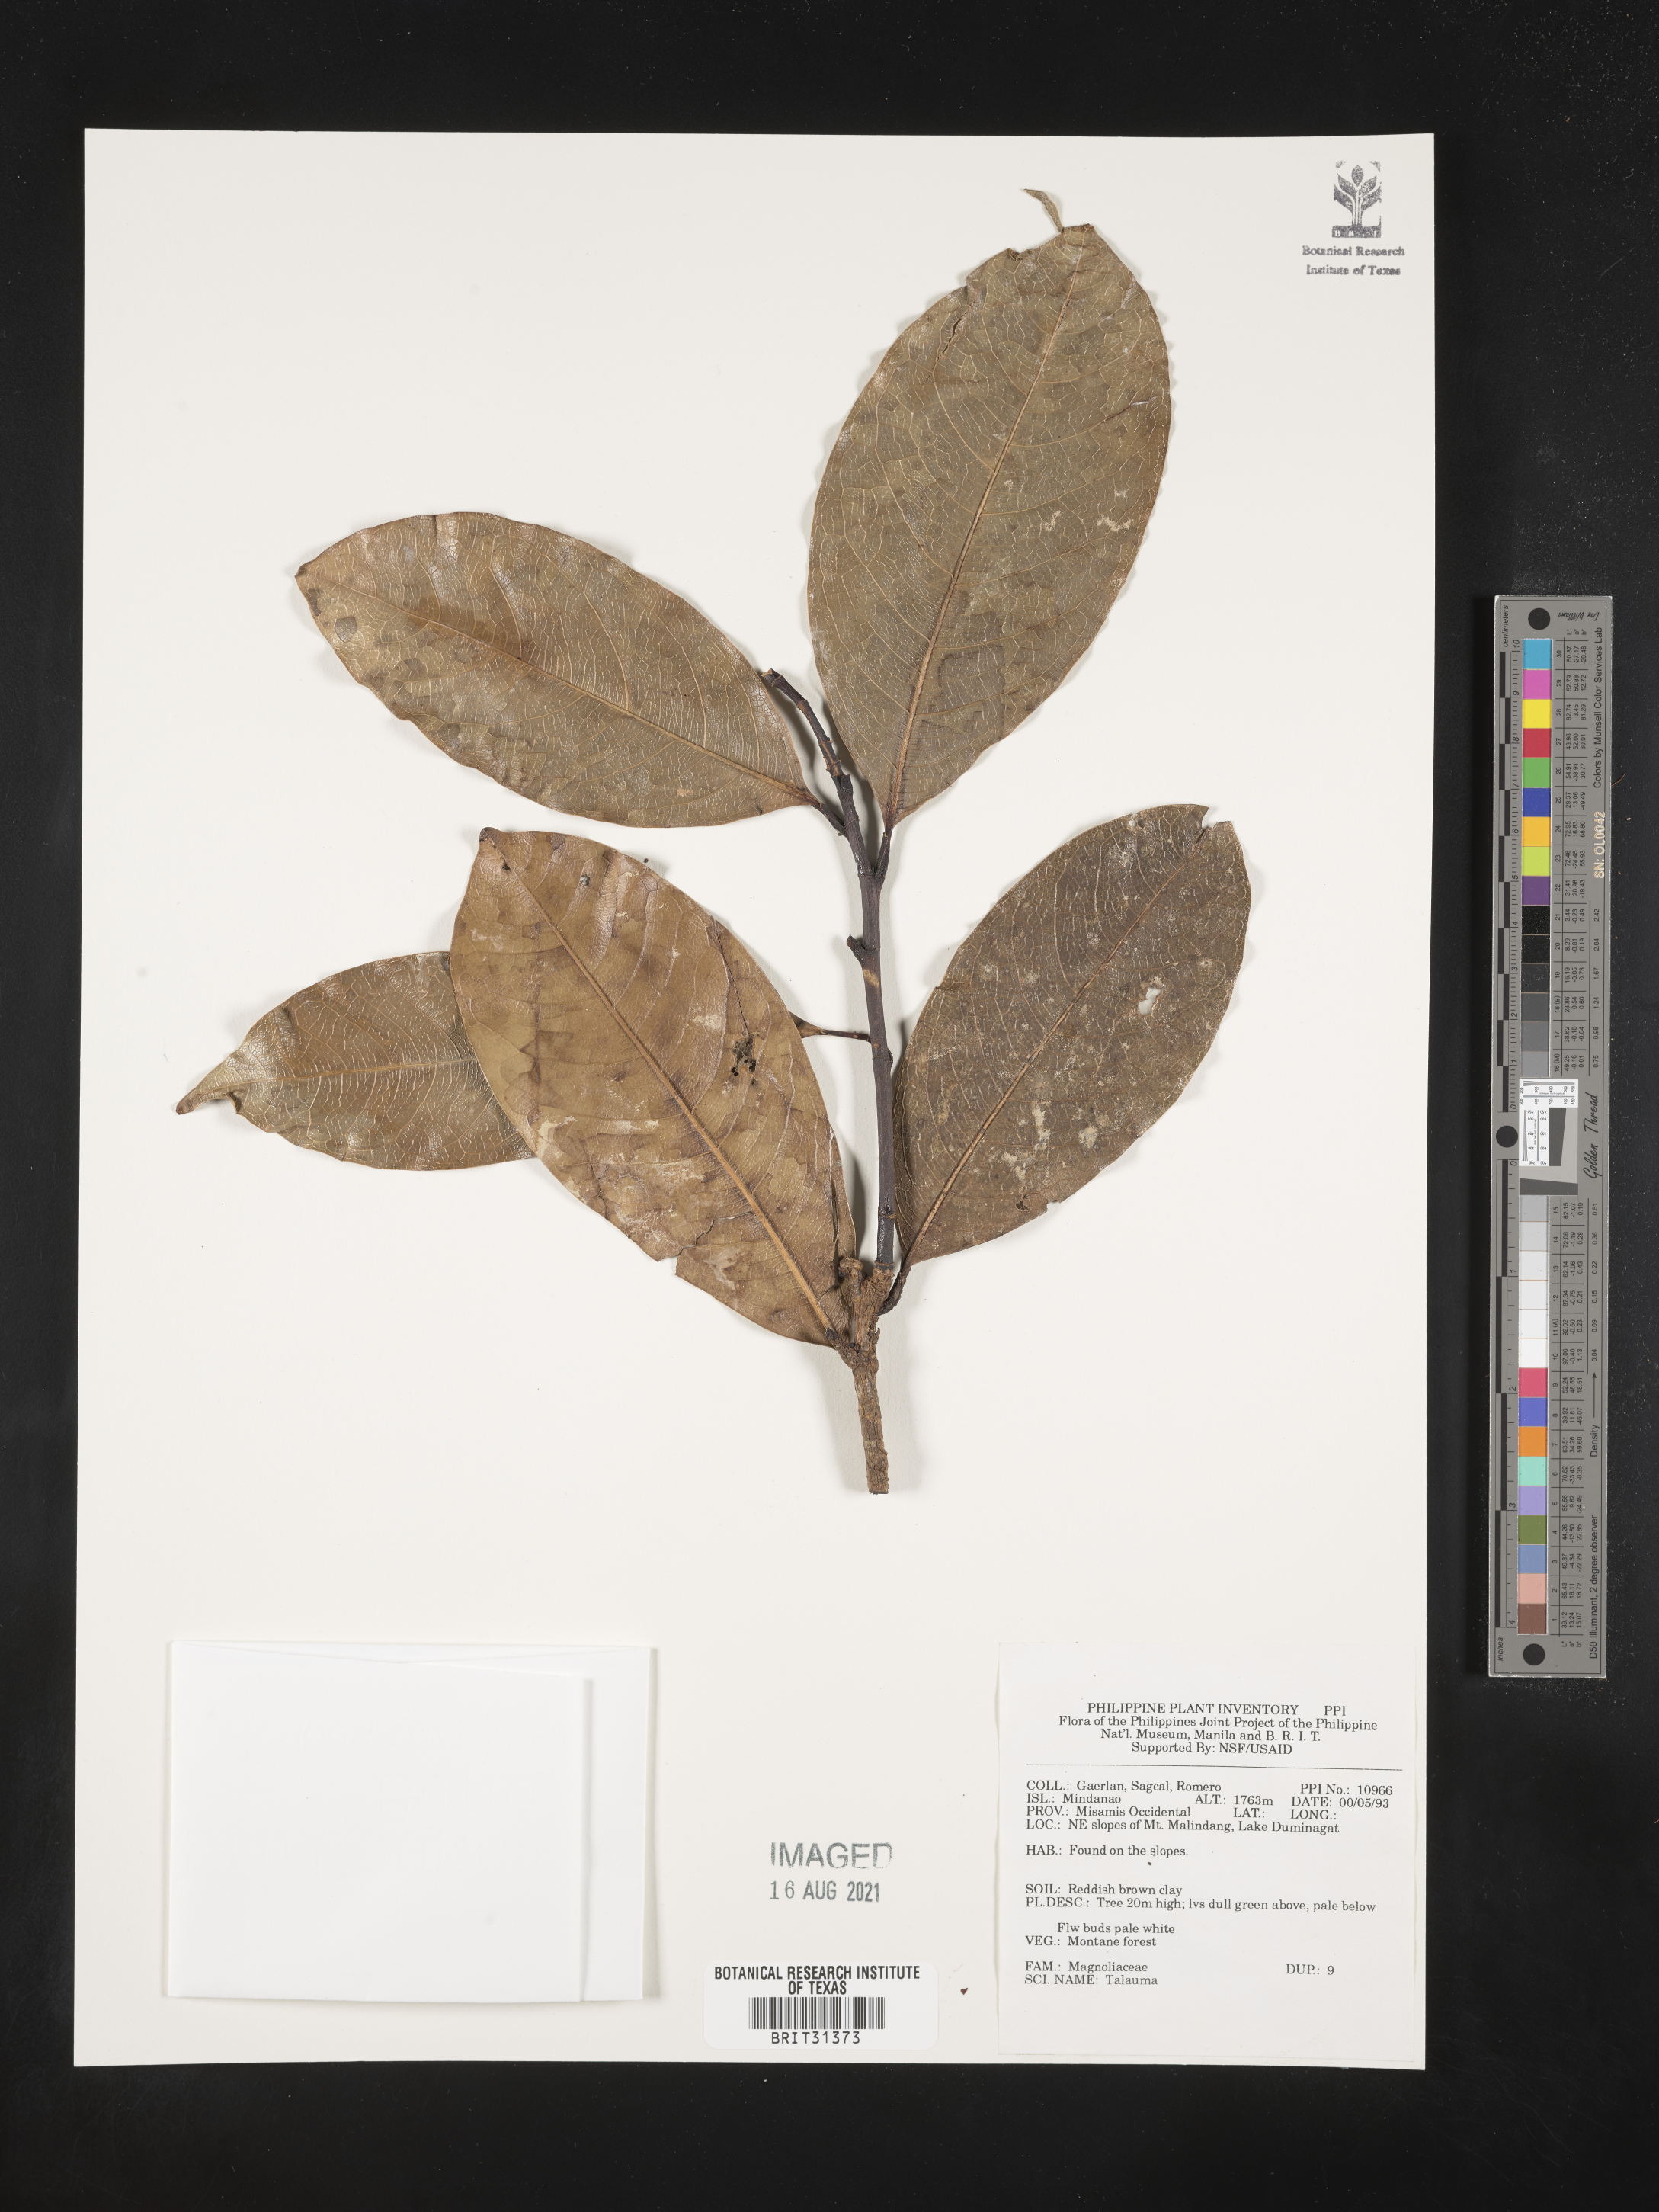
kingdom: Plantae
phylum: Tracheophyta
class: Magnoliopsida
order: Magnoliales
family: Magnoliaceae
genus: Magnolia
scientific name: Magnolia Talauma spec
